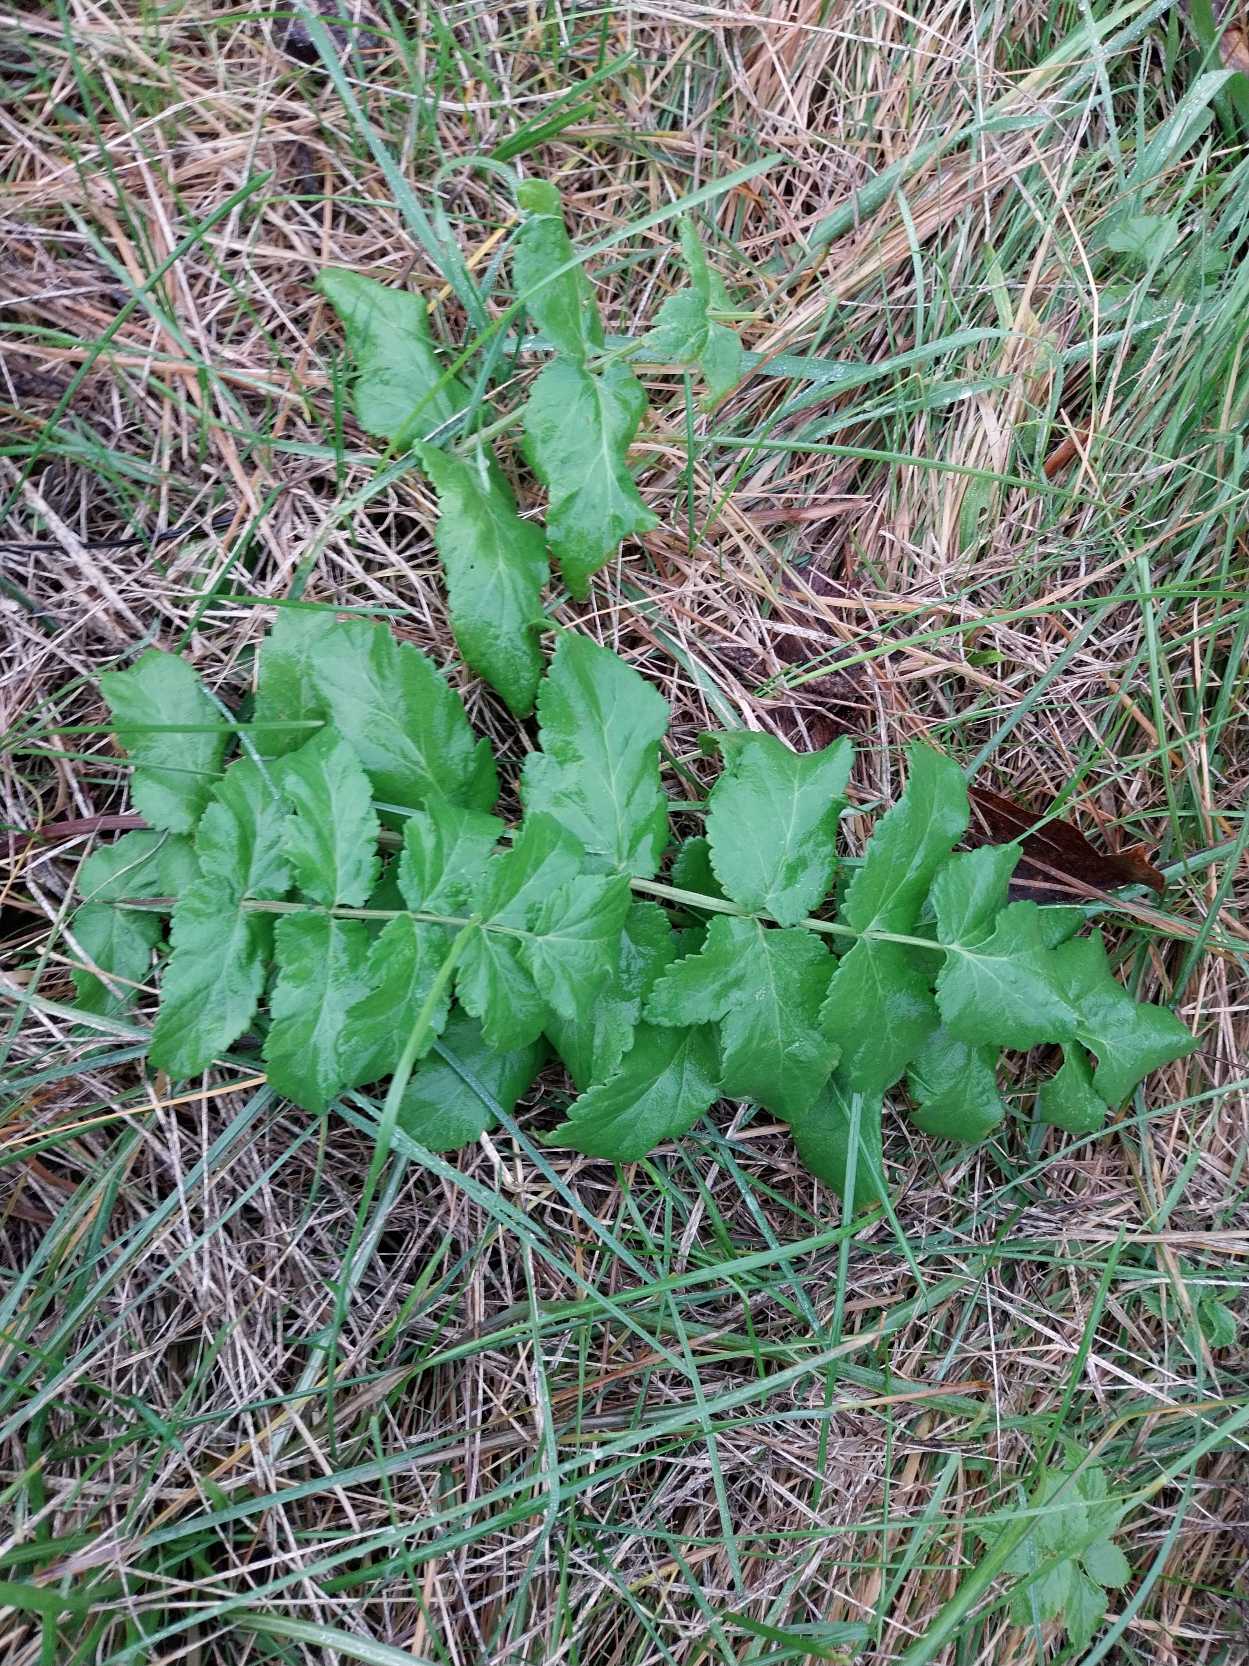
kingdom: Plantae
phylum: Tracheophyta
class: Magnoliopsida
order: Apiales
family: Apiaceae
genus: Pastinaca
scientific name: Pastinaca sativa
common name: Pastinak
